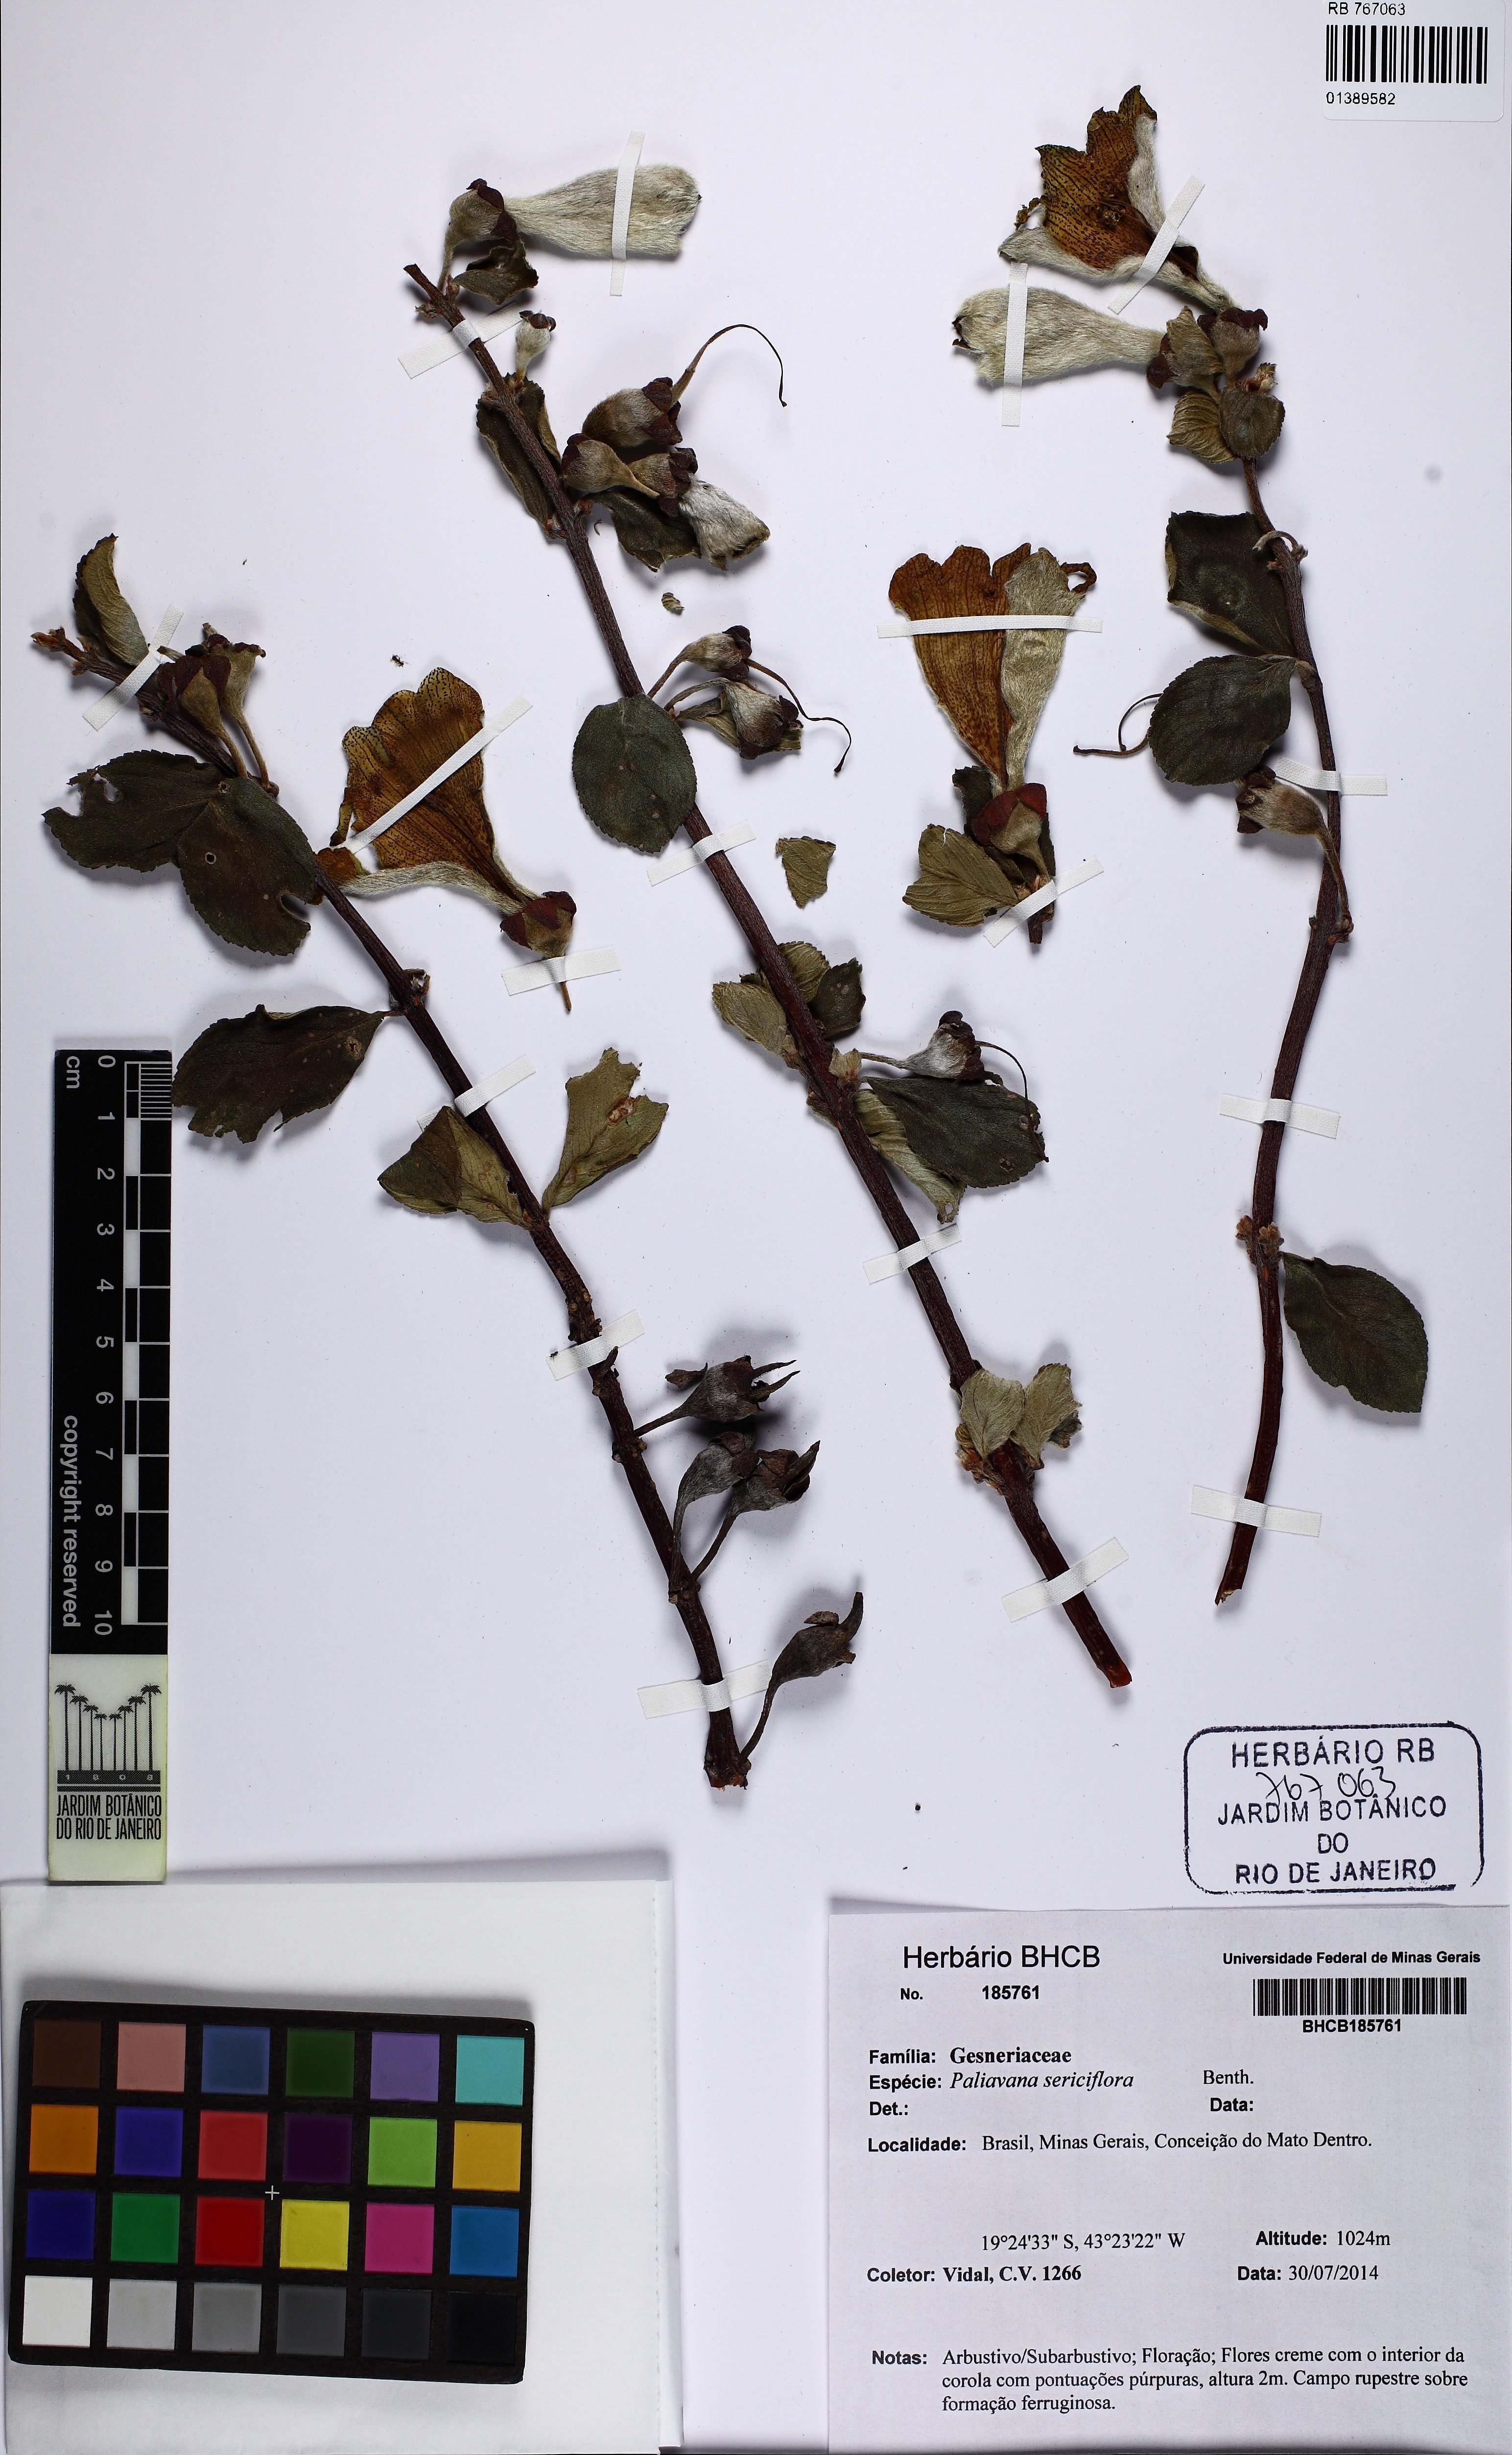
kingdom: Plantae
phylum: Tracheophyta
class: Magnoliopsida
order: Lamiales
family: Gesneriaceae
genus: Paliavana
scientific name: Paliavana sericiflora
